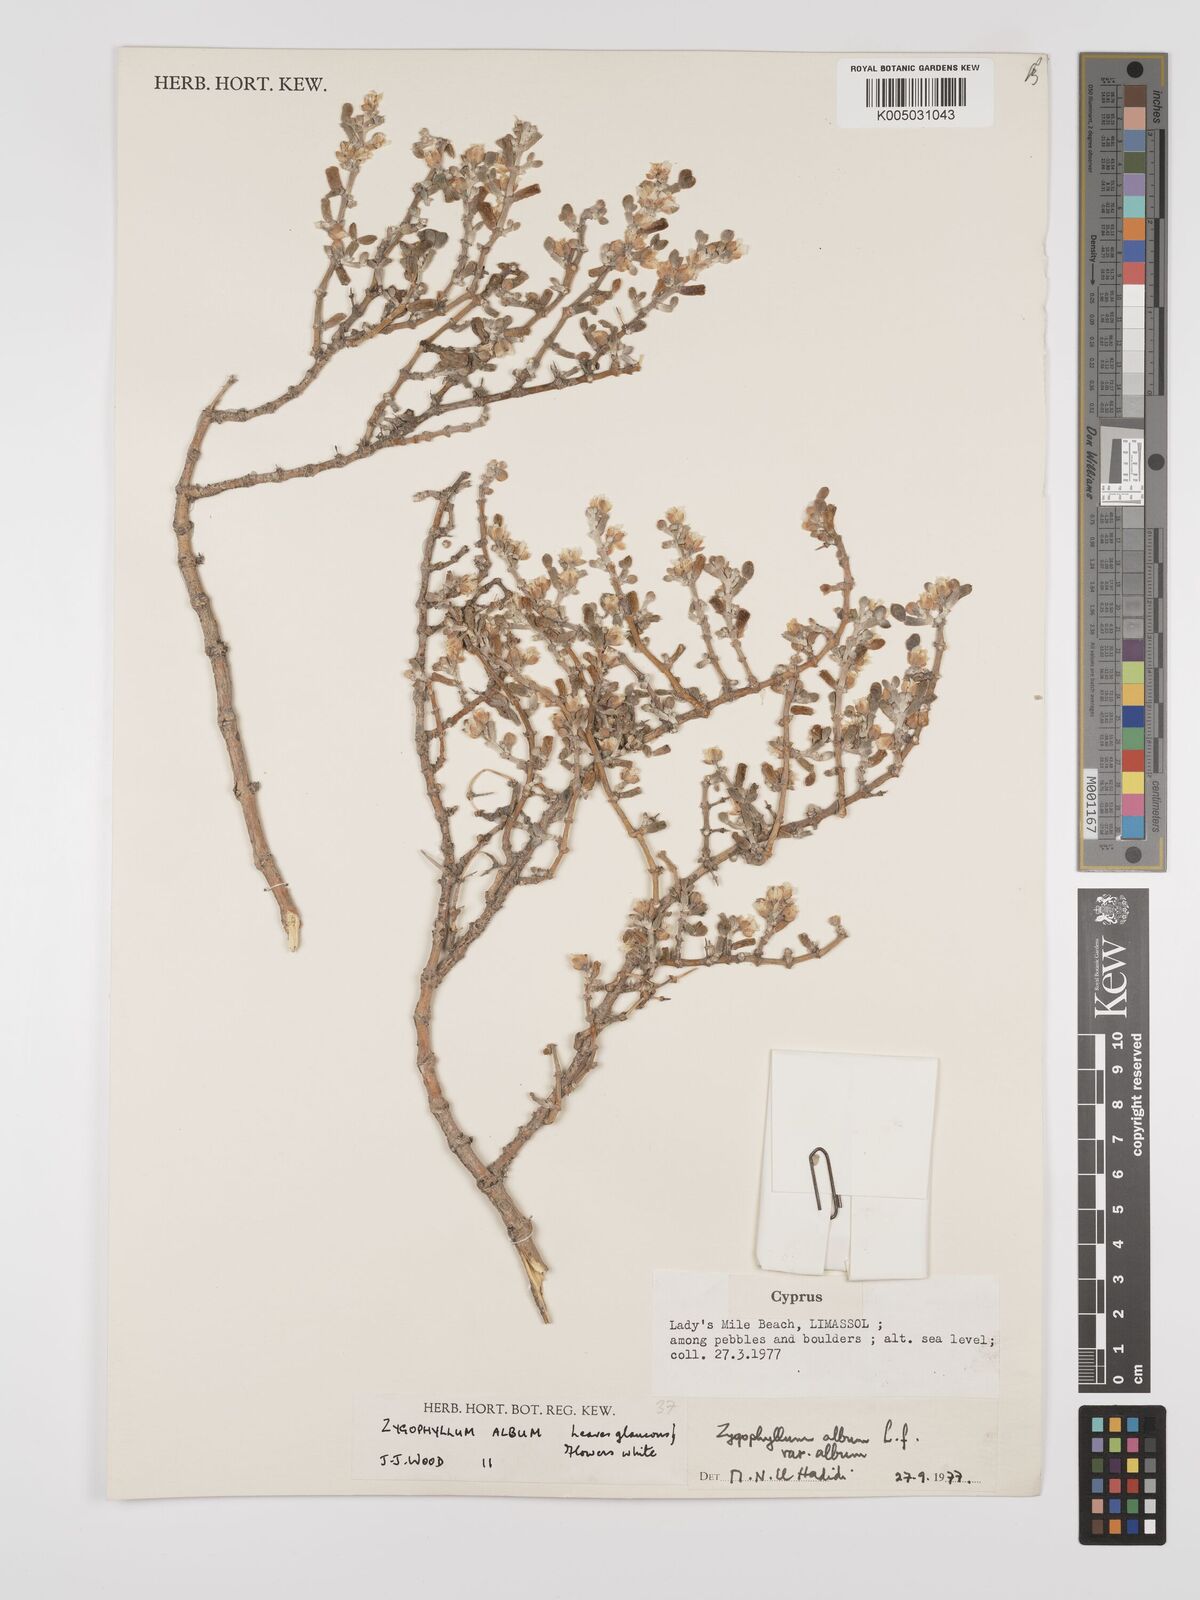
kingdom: Plantae
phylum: Tracheophyta
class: Magnoliopsida
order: Zygophyllales
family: Zygophyllaceae
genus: Zygophyllum
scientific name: Zygophyllum
